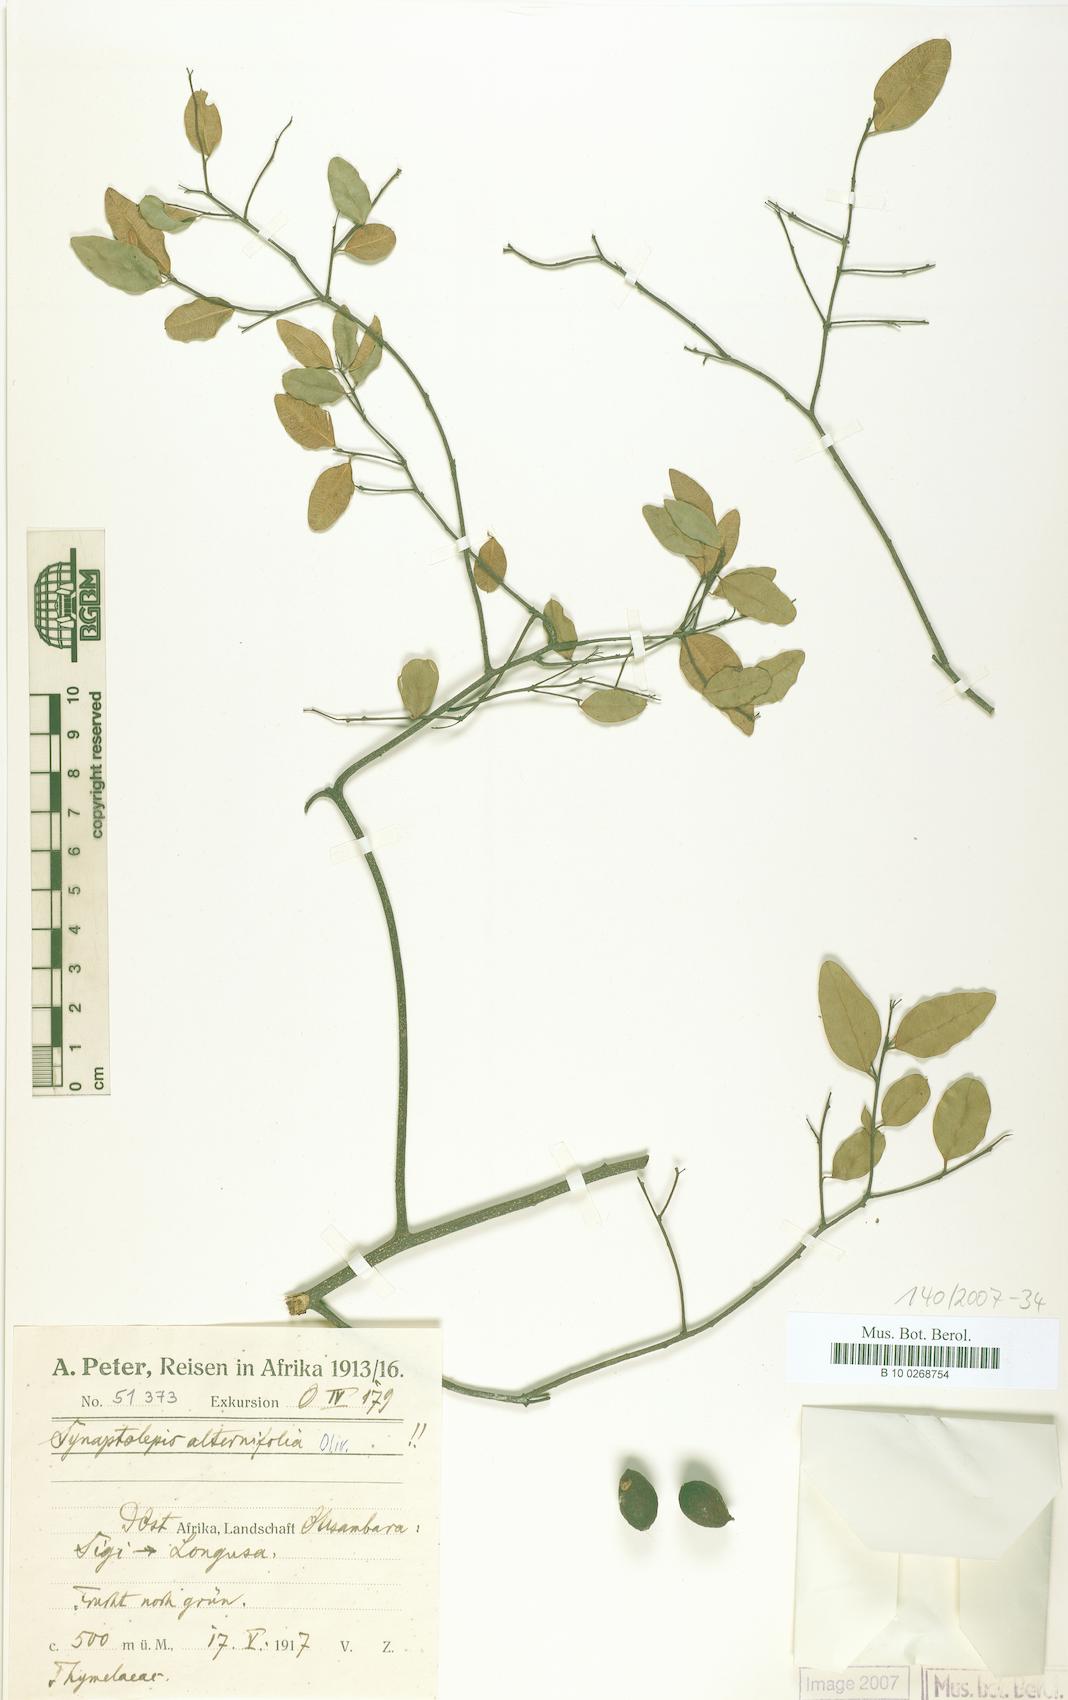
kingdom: Plantae
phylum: Tracheophyta
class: Magnoliopsida
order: Malvales
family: Thymelaeaceae
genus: Synaptolepis
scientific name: Synaptolepis alternifolia
